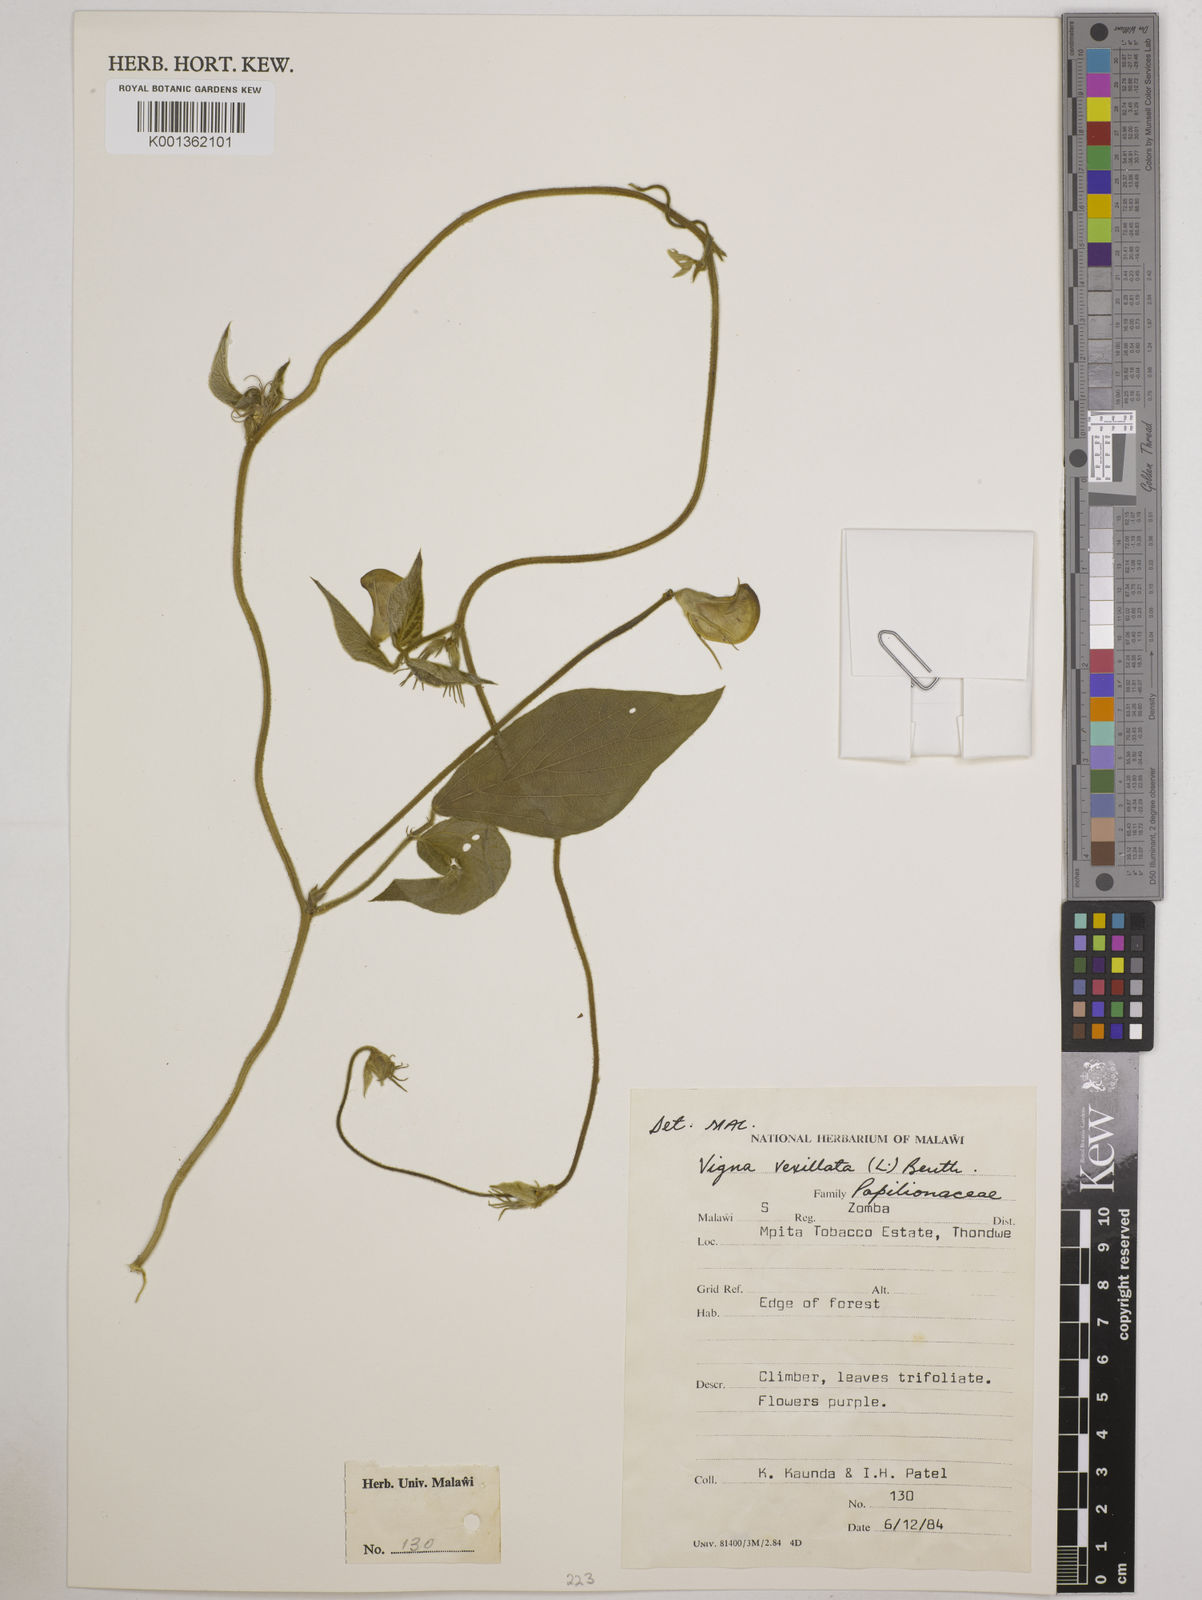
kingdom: Plantae
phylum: Tracheophyta
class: Magnoliopsida
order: Fabales
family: Fabaceae
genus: Vigna
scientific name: Vigna vexillata
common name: Zombi pea
